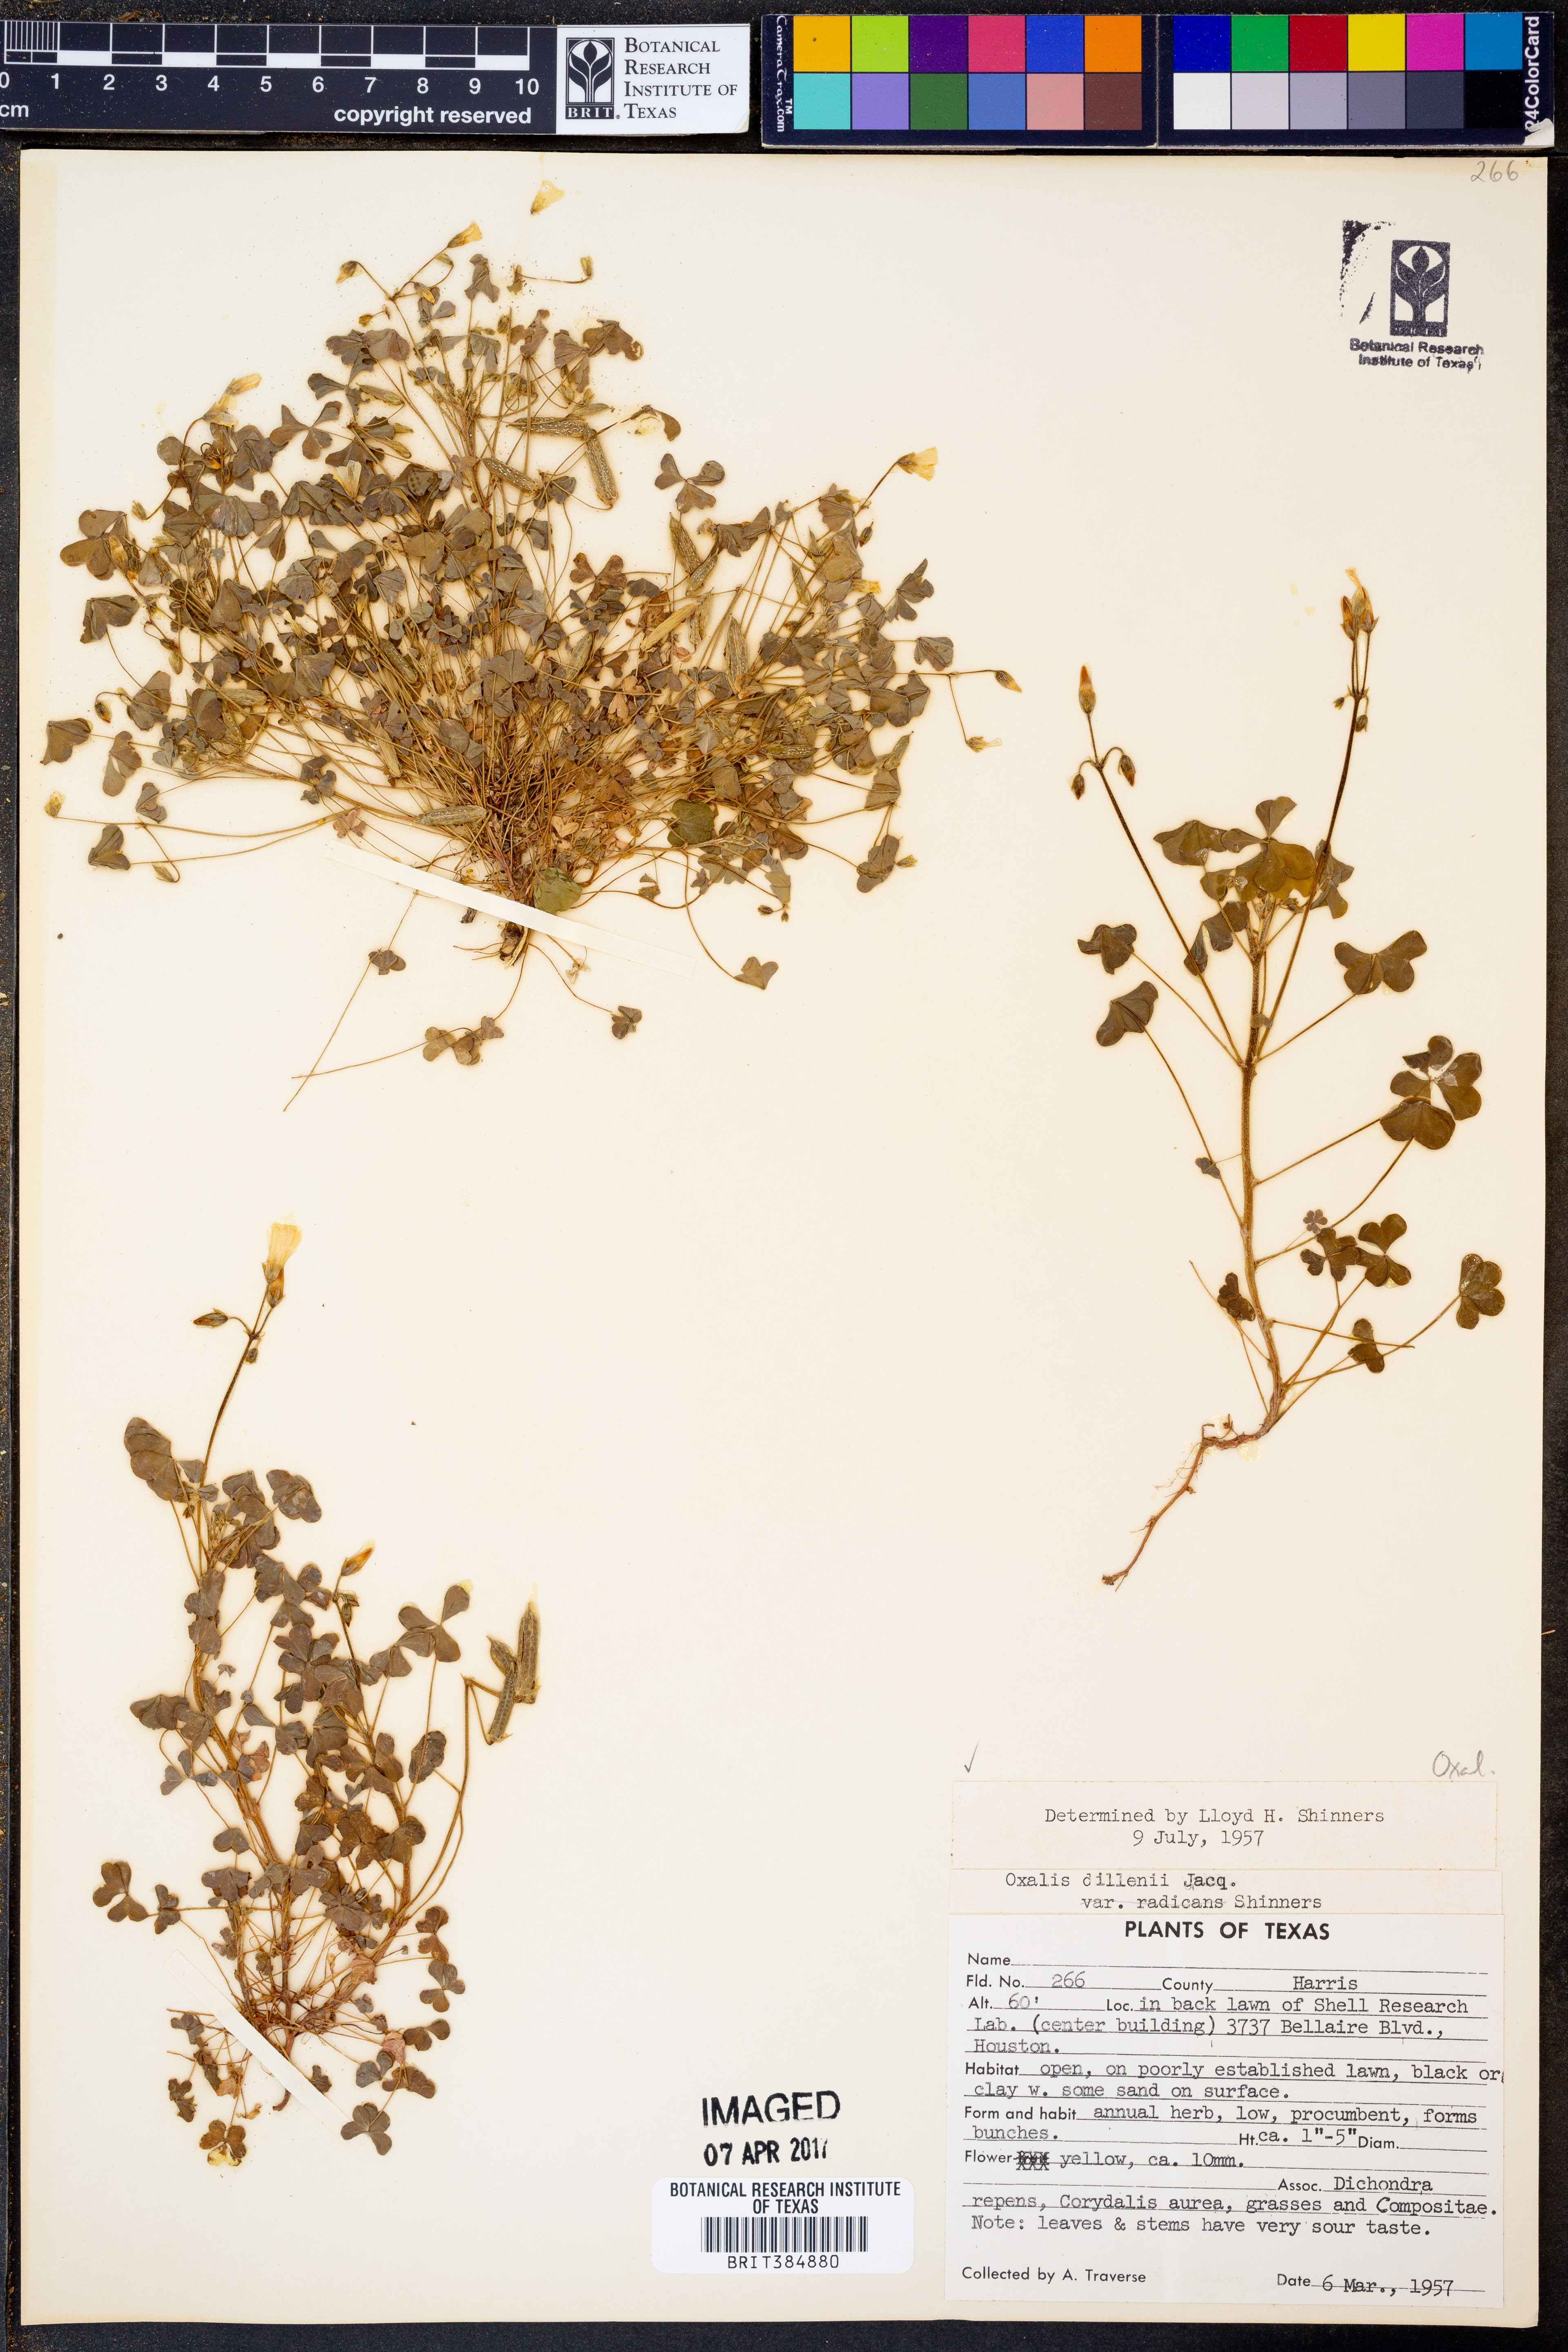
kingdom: Plantae
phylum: Tracheophyta
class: Magnoliopsida
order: Oxalidales
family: Oxalidaceae
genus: Oxalis
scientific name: Oxalis dillenii
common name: Sussex yellow-sorrel
